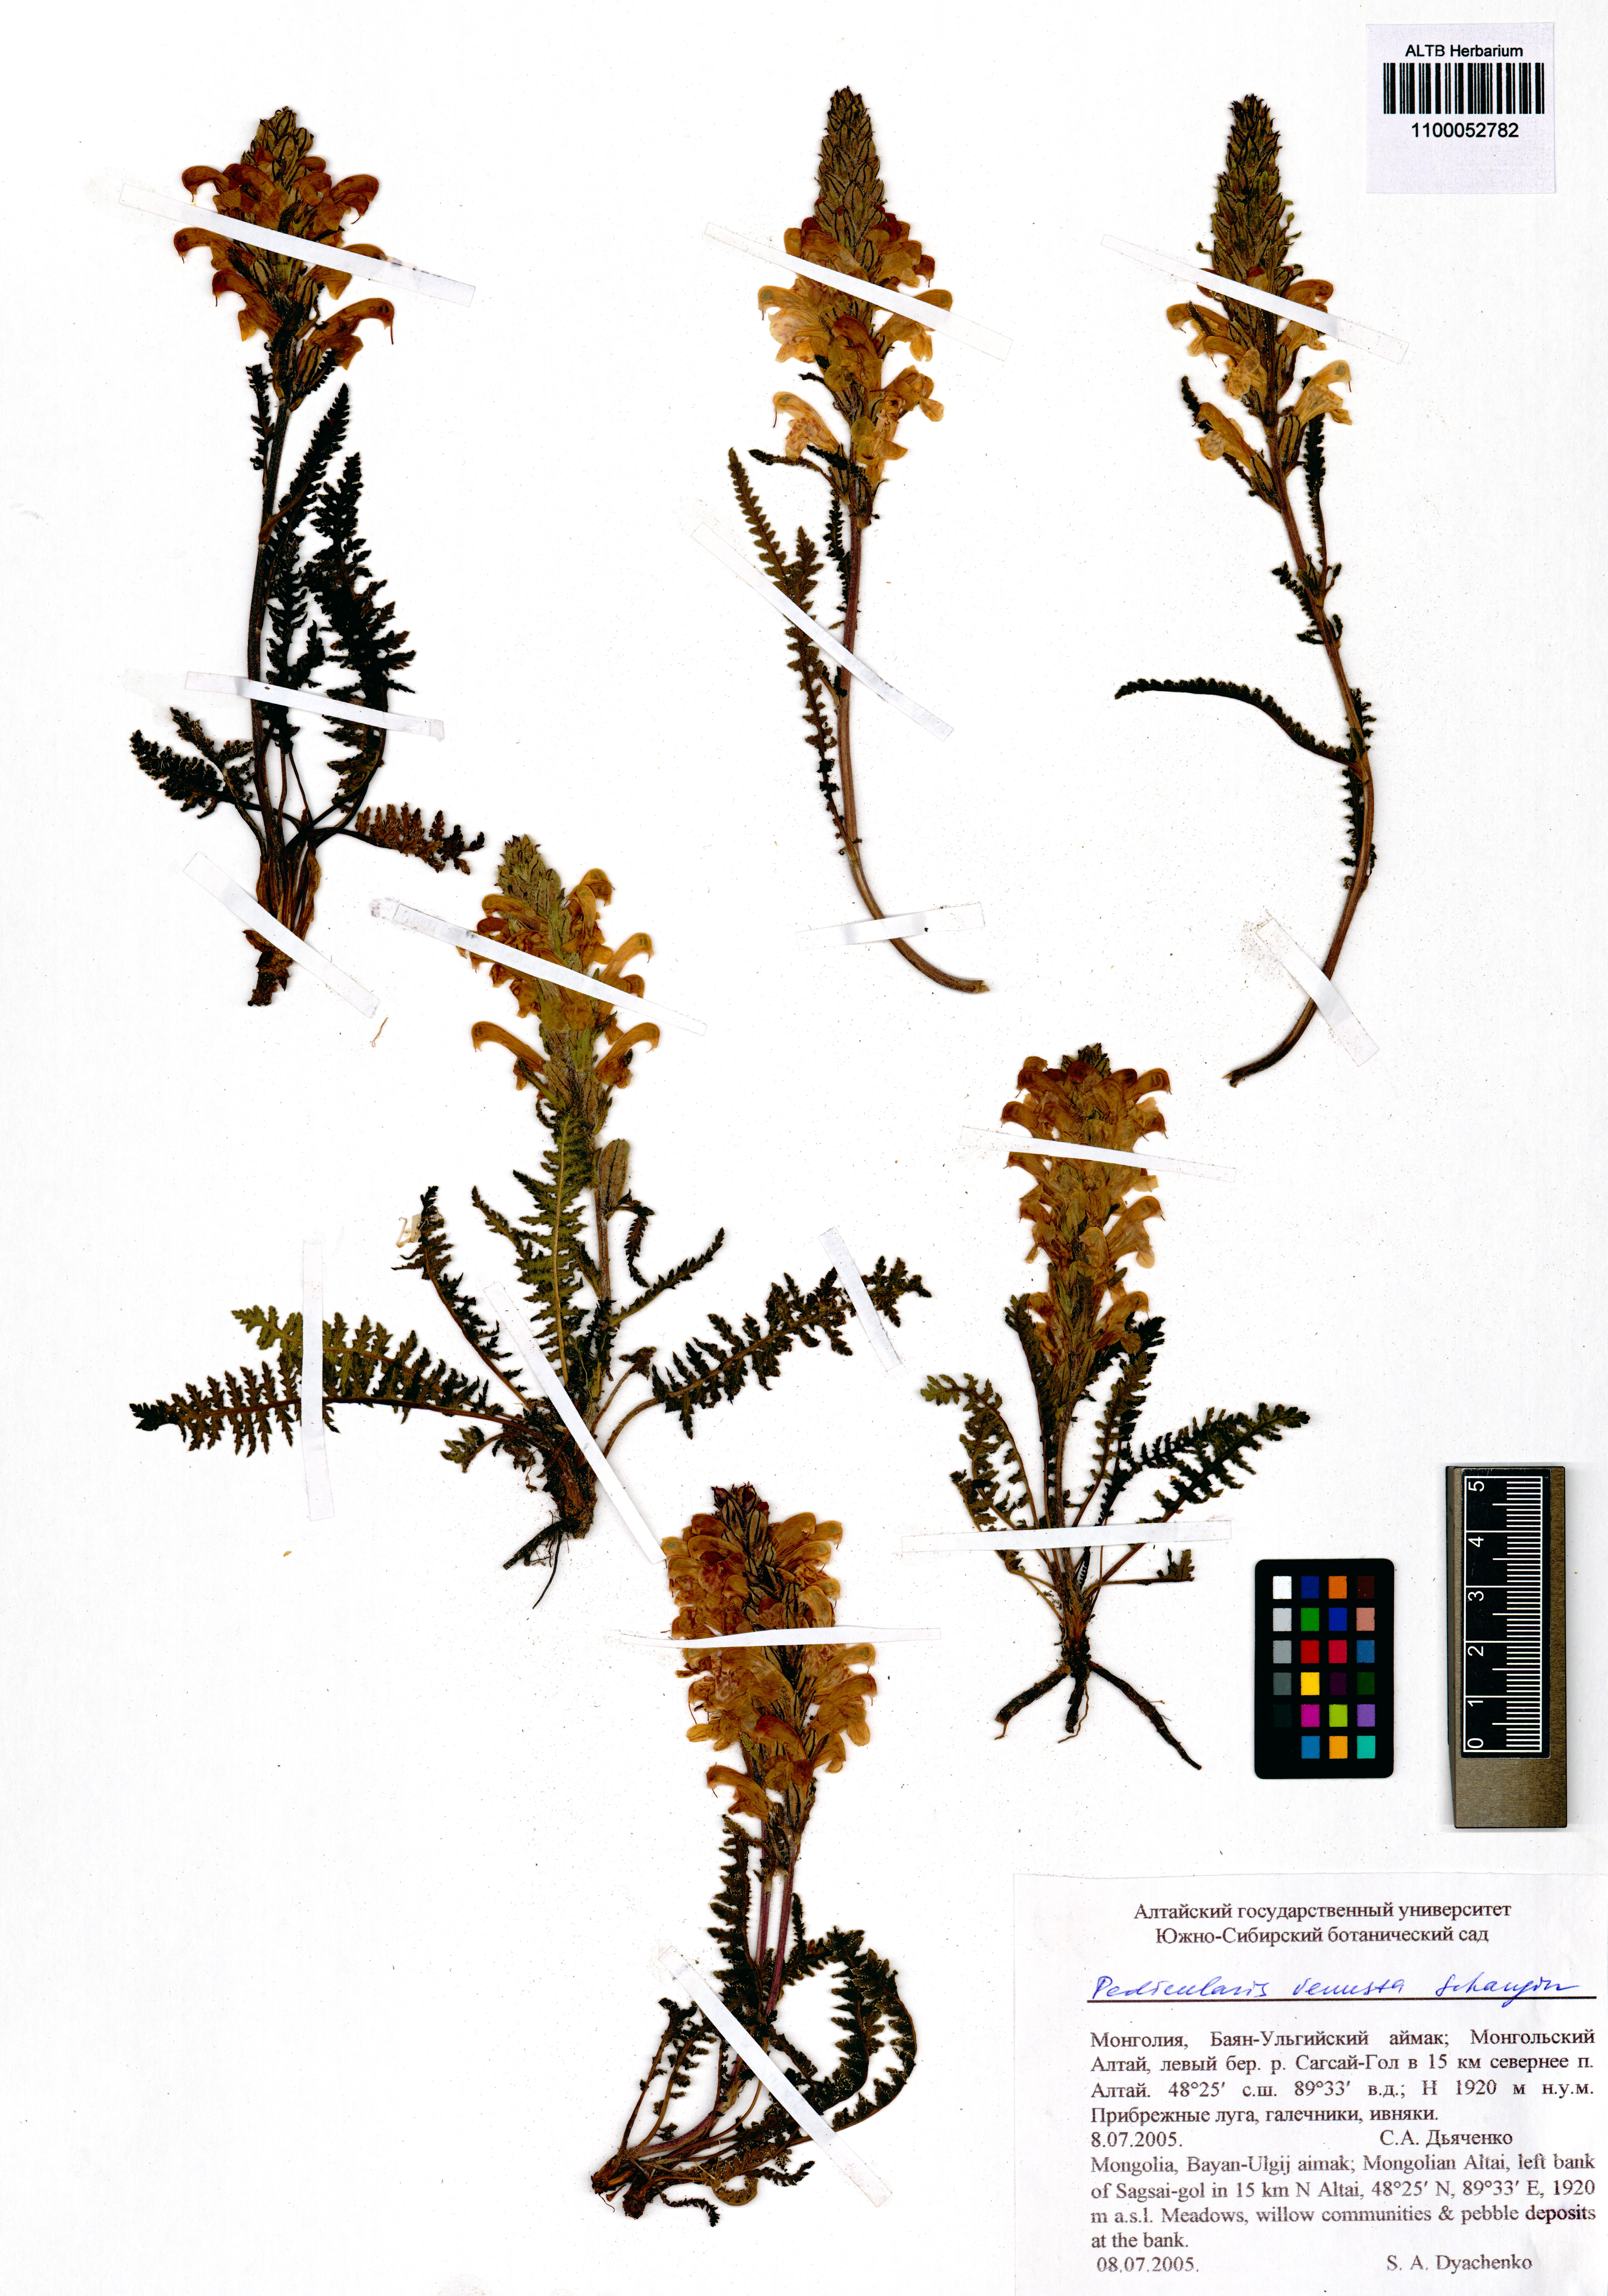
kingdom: Plantae
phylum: Tracheophyta
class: Magnoliopsida
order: Lamiales
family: Orobanchaceae
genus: Pedicularis
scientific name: Pedicularis venusta
